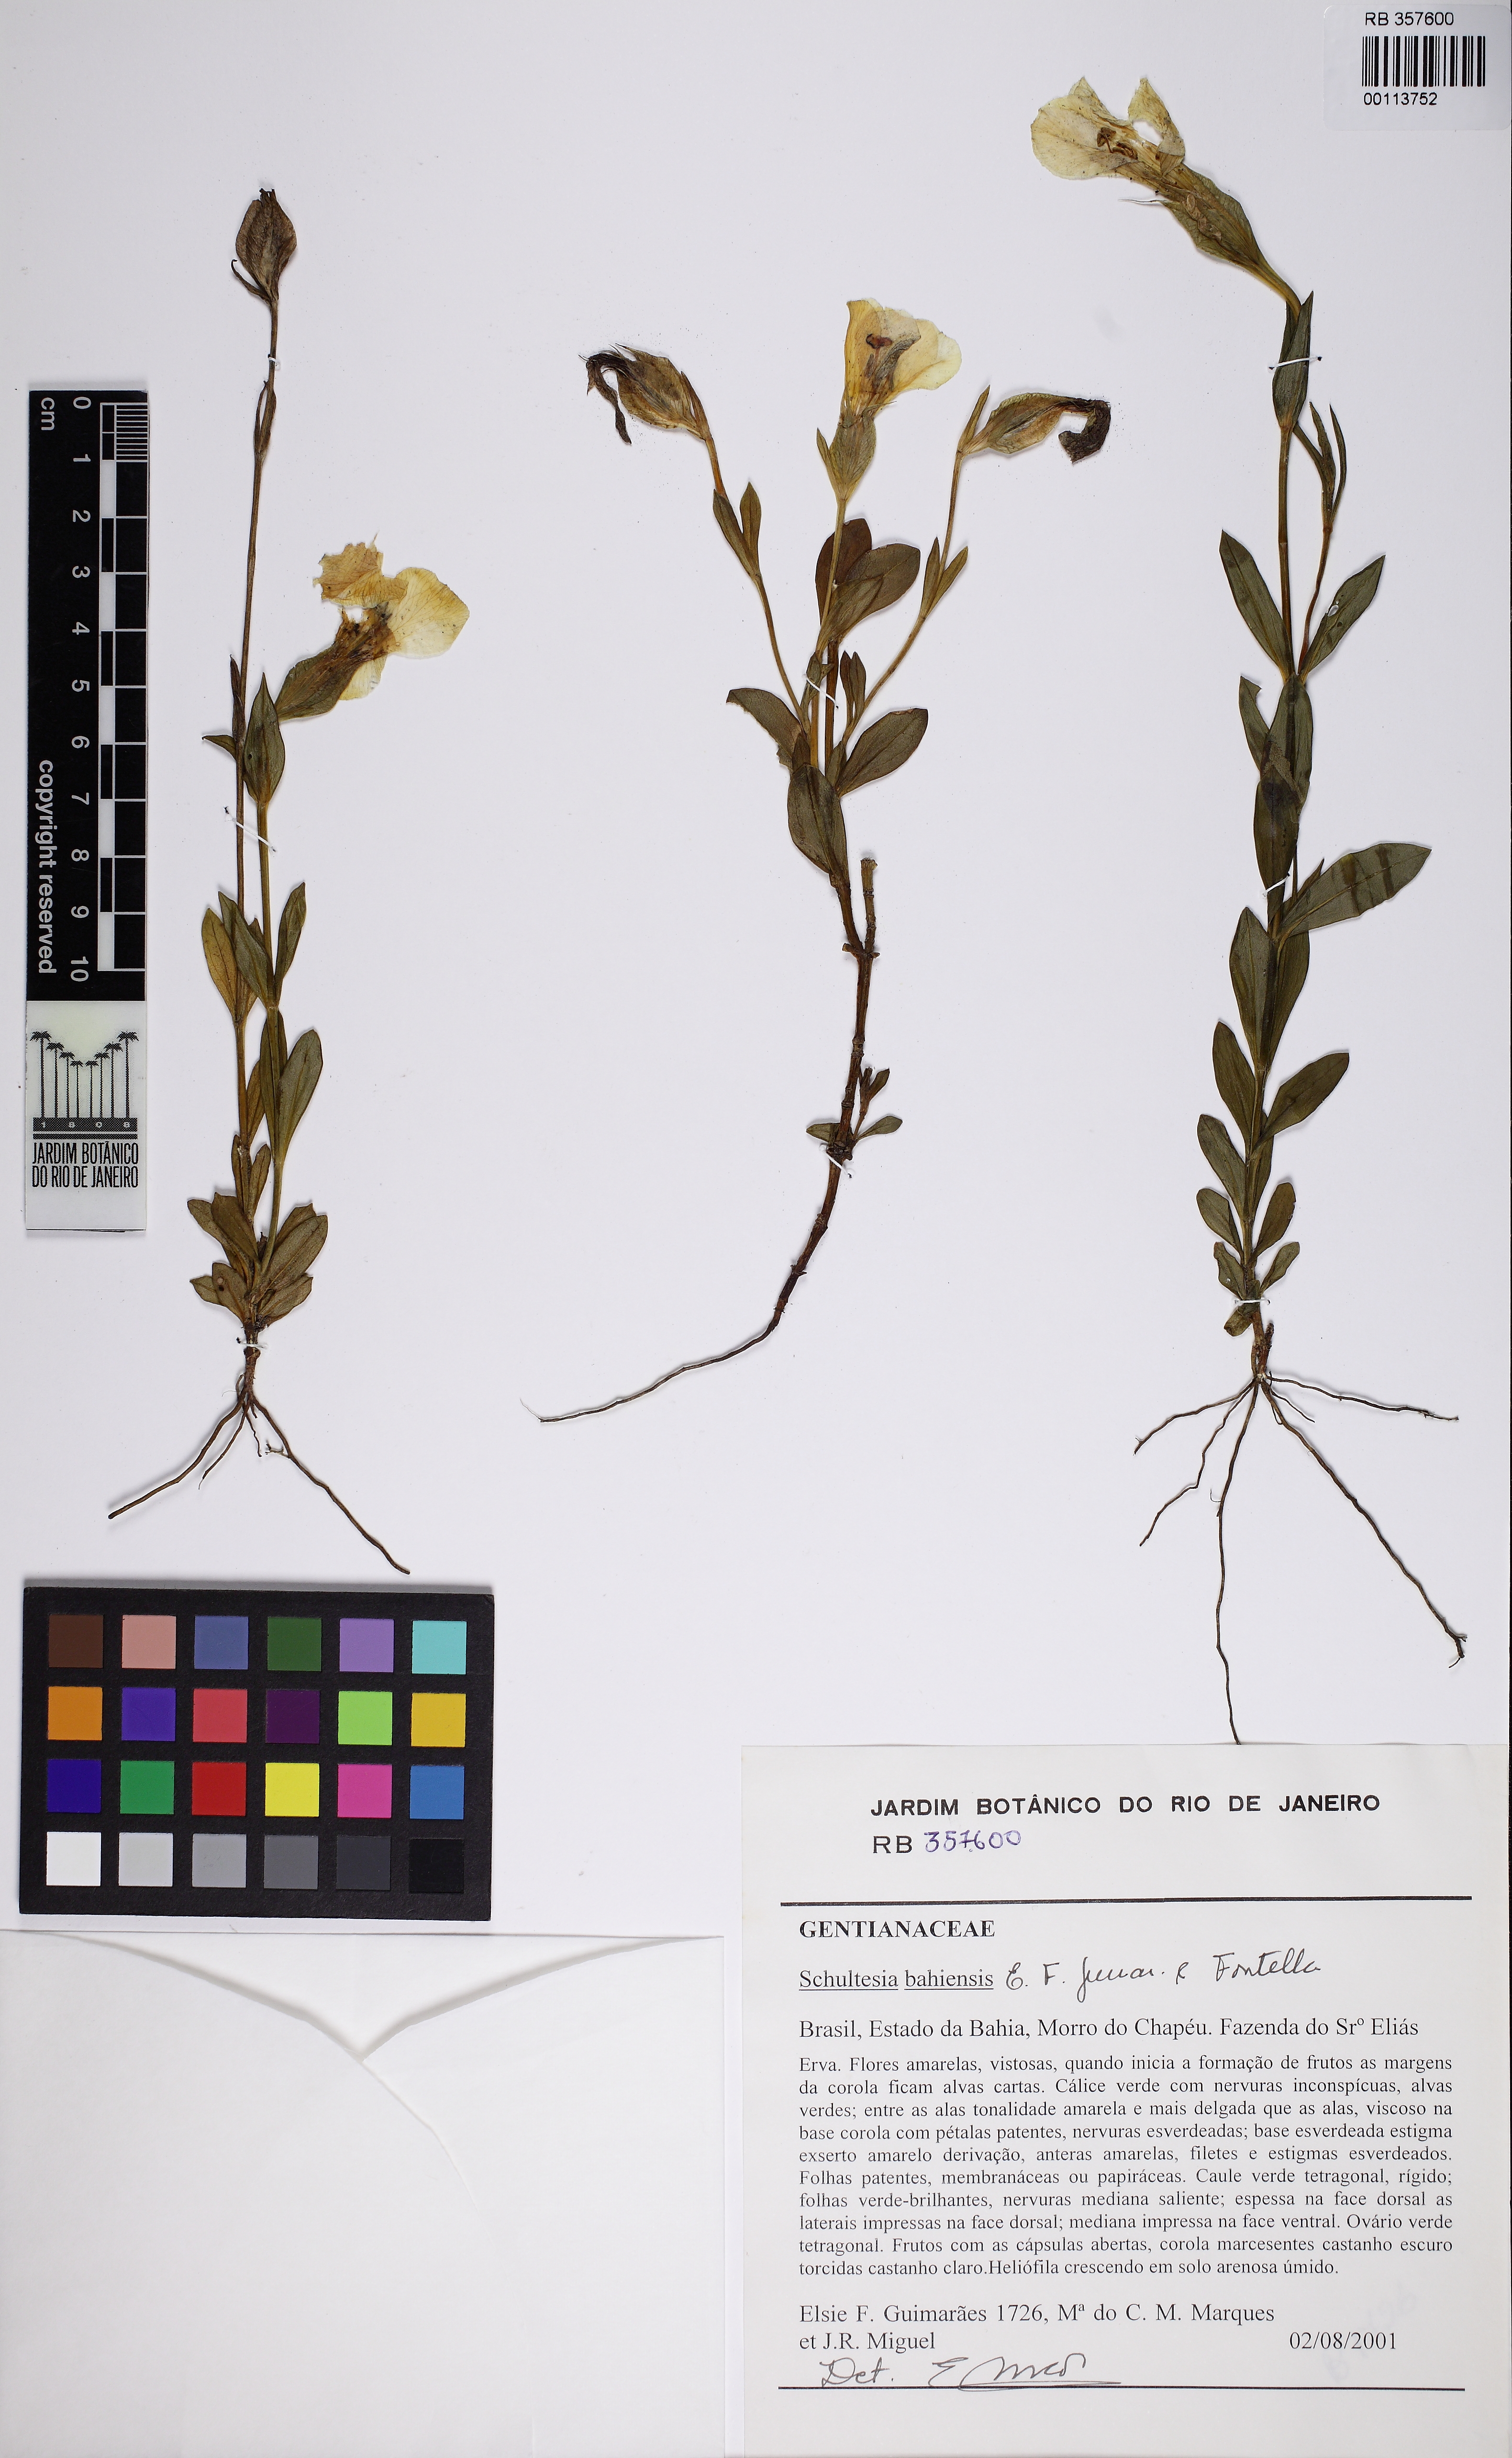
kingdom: Plantae
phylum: Tracheophyta
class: Magnoliopsida
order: Gentianales
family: Gentianaceae
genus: Schultesia
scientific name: Schultesia bahiensis
